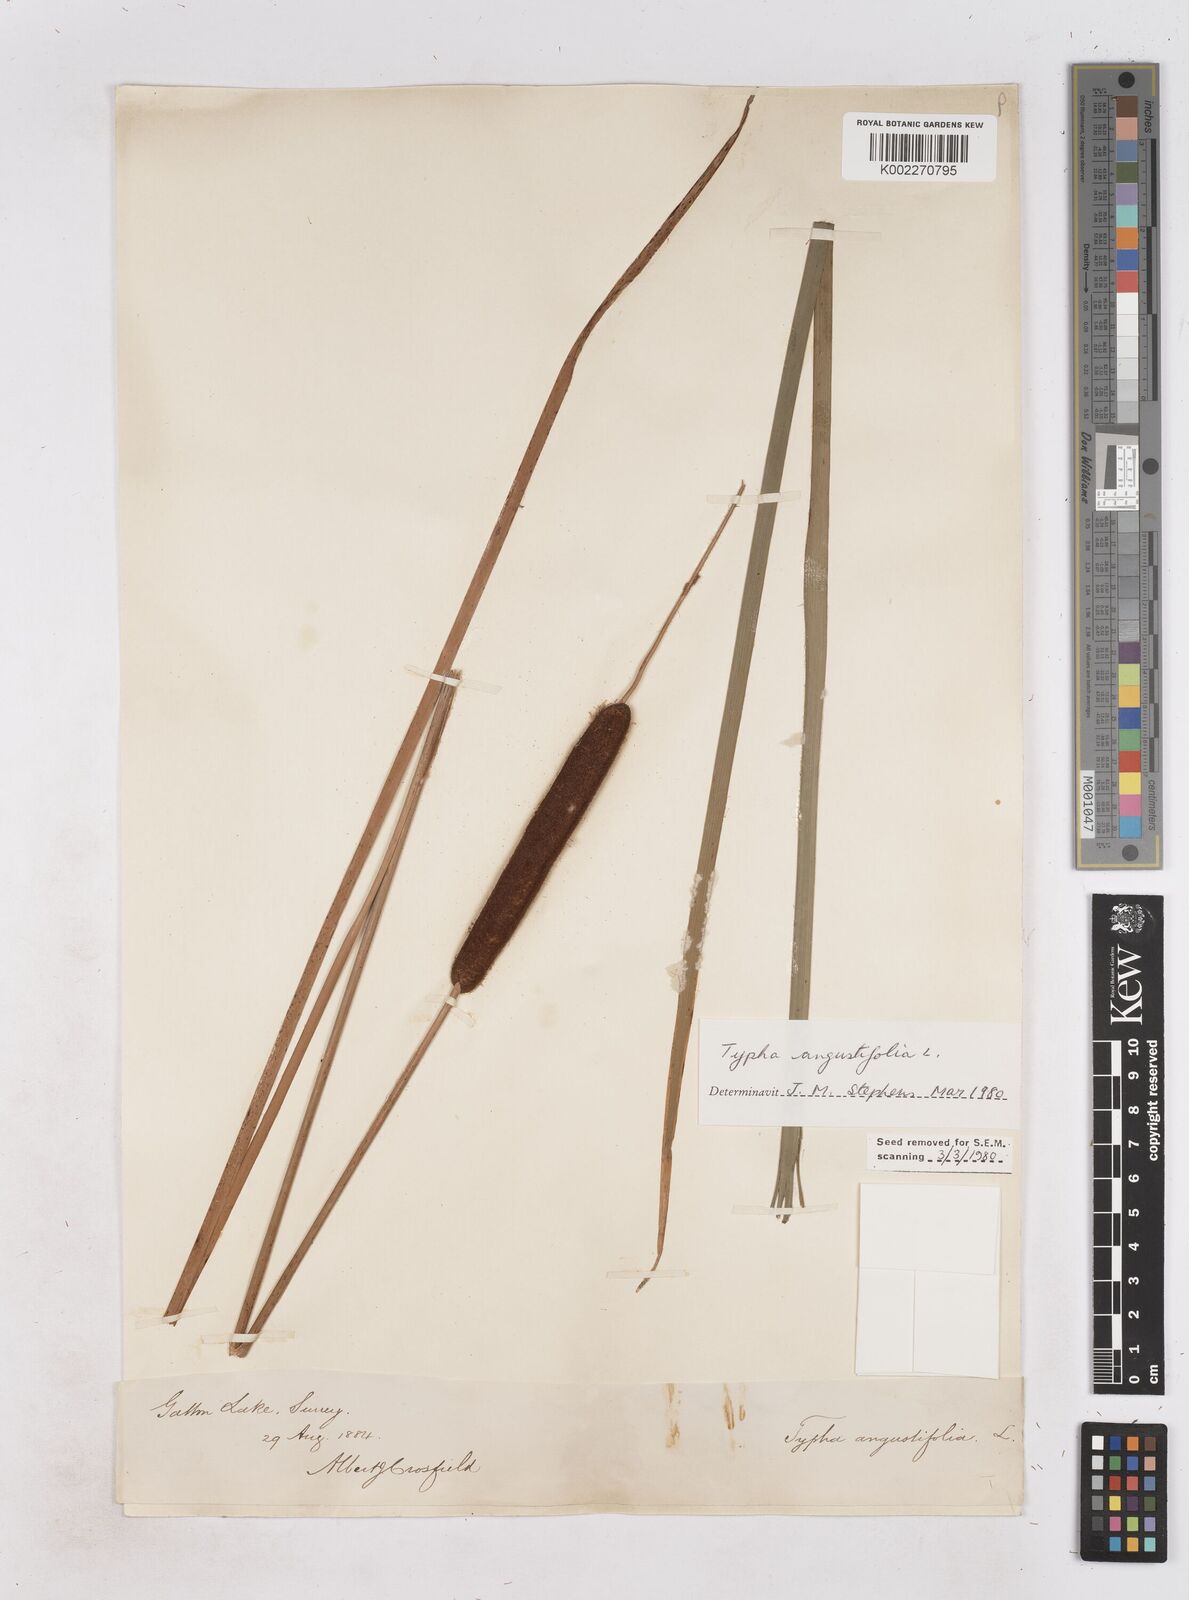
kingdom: Plantae
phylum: Tracheophyta
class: Liliopsida
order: Poales
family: Typhaceae
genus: Typha
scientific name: Typha angustifolia
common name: Lesser bulrush
